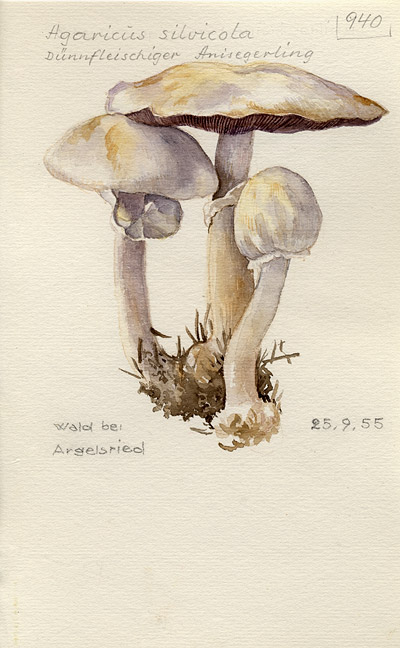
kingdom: Fungi
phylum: Basidiomycota
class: Agaricomycetes
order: Agaricales
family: Agaricaceae
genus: Agaricus
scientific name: Agaricus sylvicola
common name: Wood mushroom
